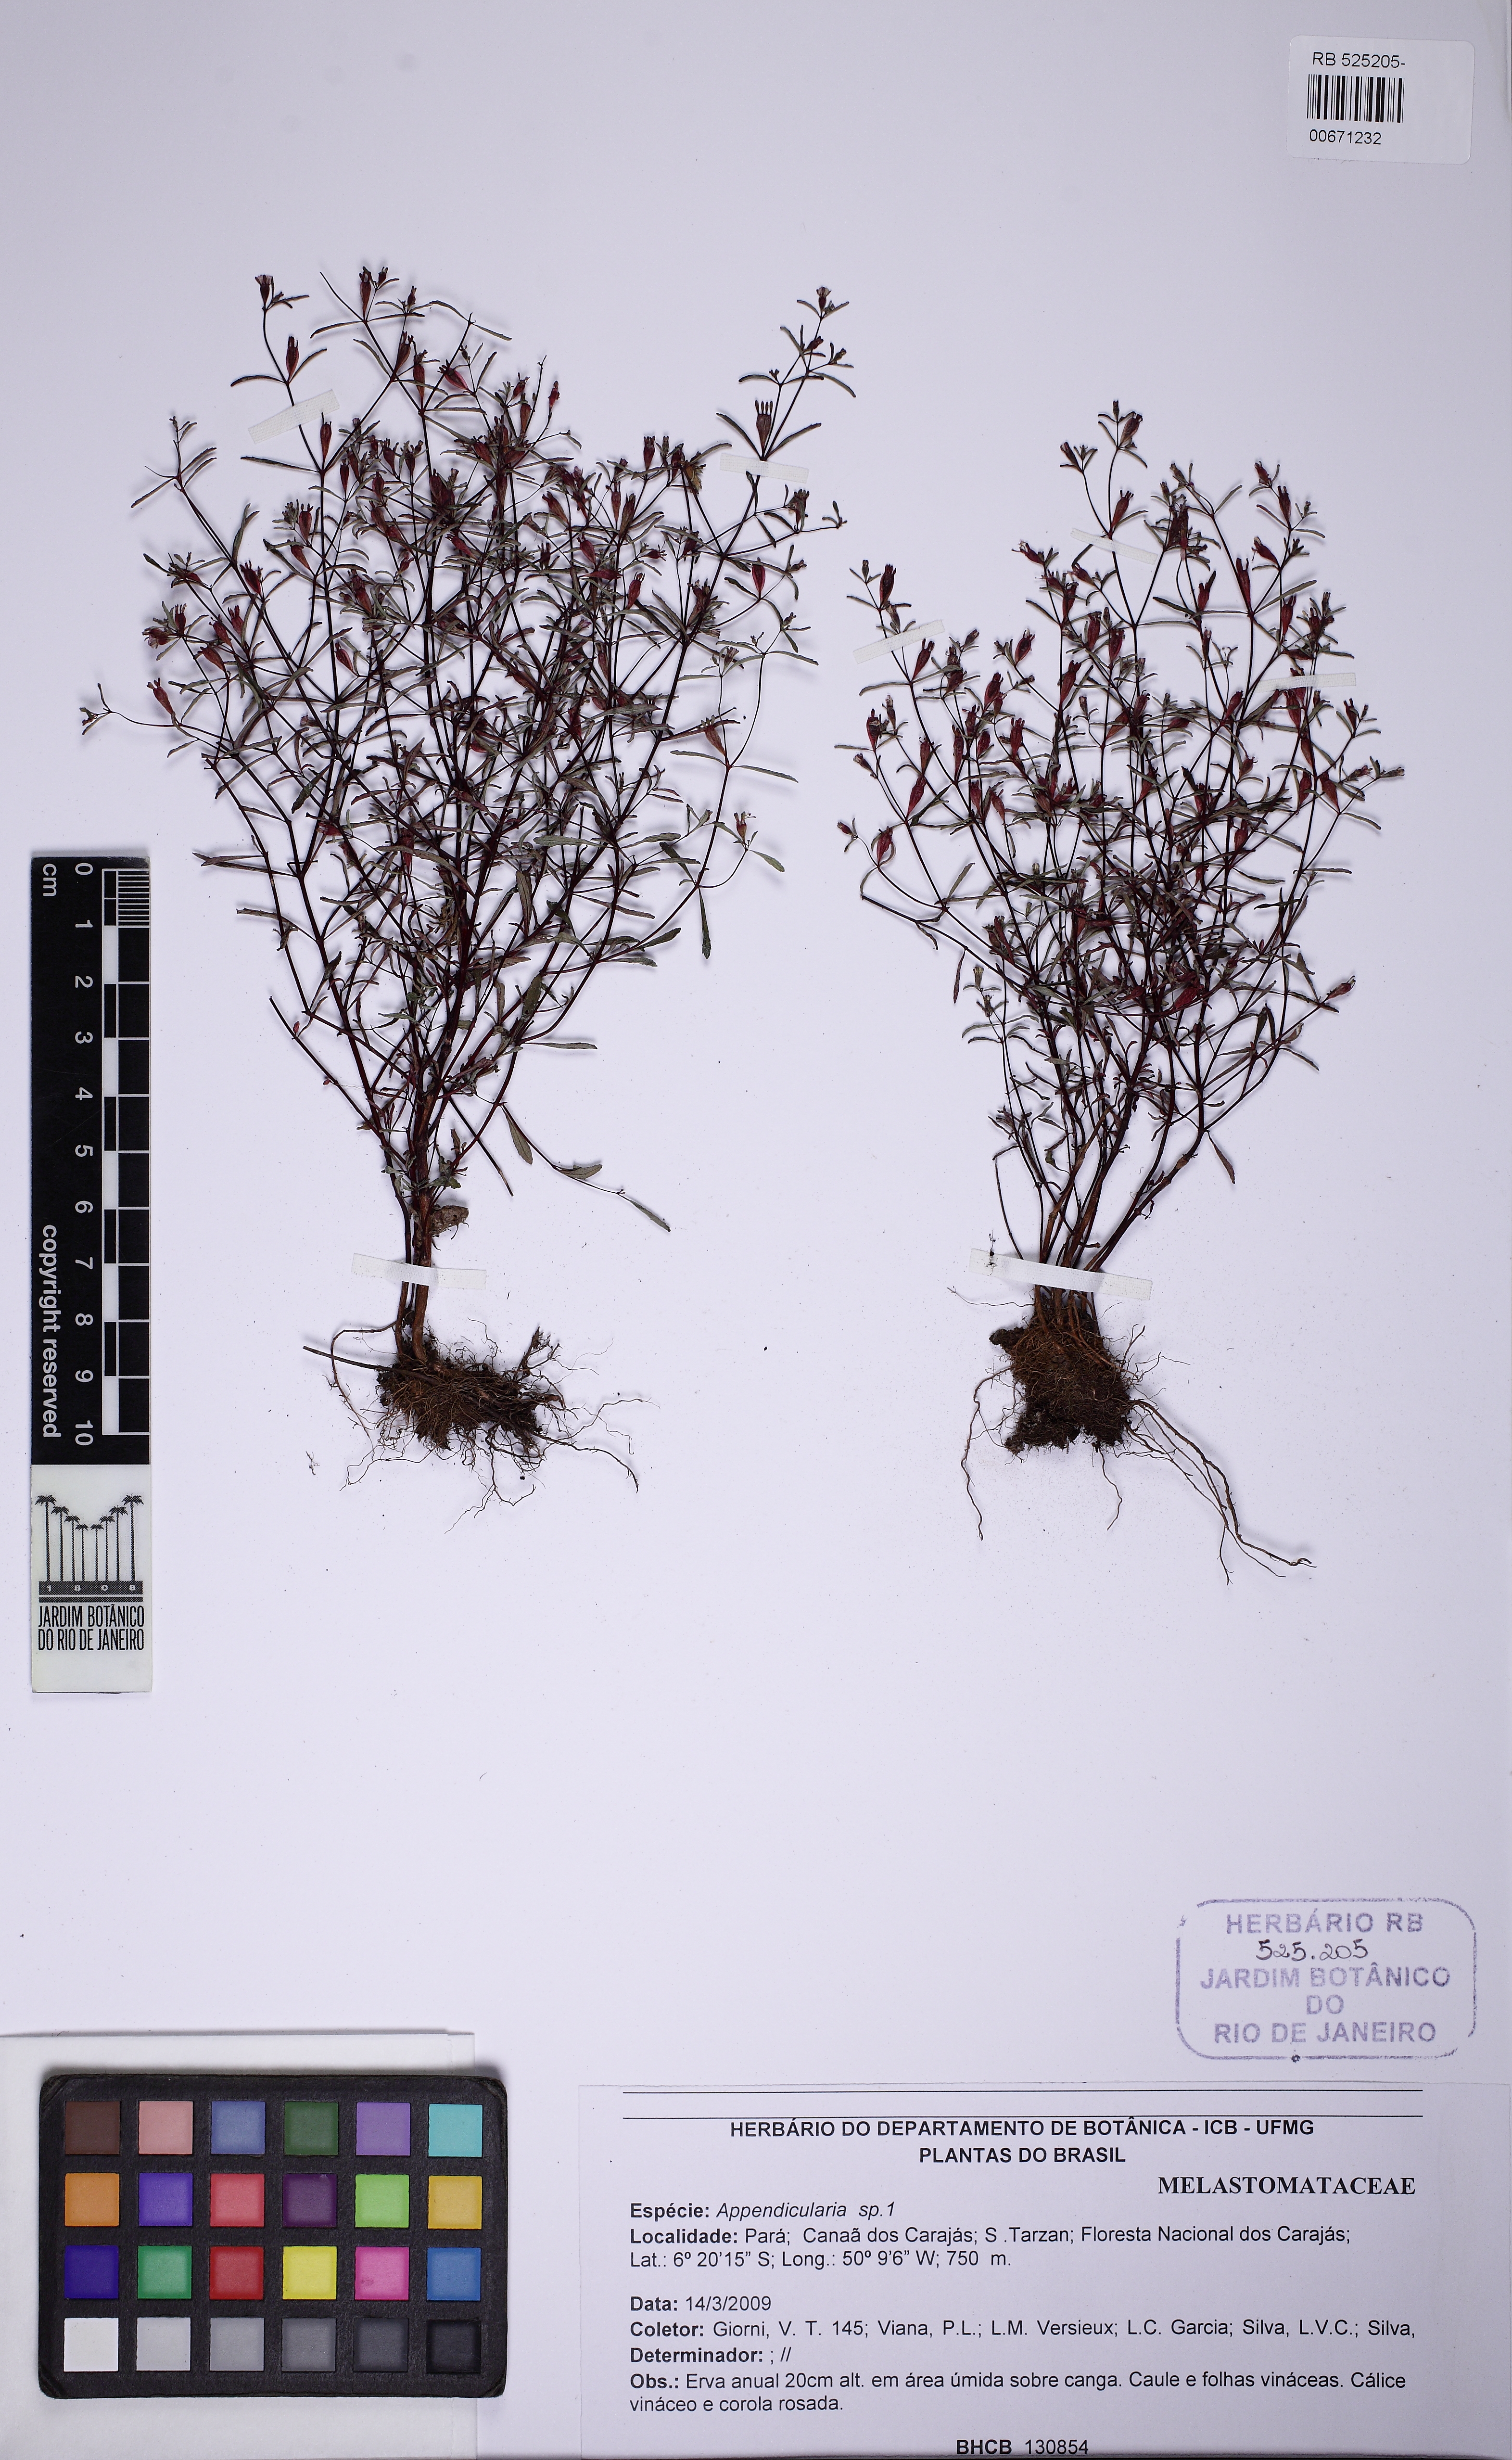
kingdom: Plantae
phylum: Tracheophyta
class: Magnoliopsida
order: Myrtales
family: Melastomataceae
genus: Brasilianthus
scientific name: Brasilianthus carajensis
